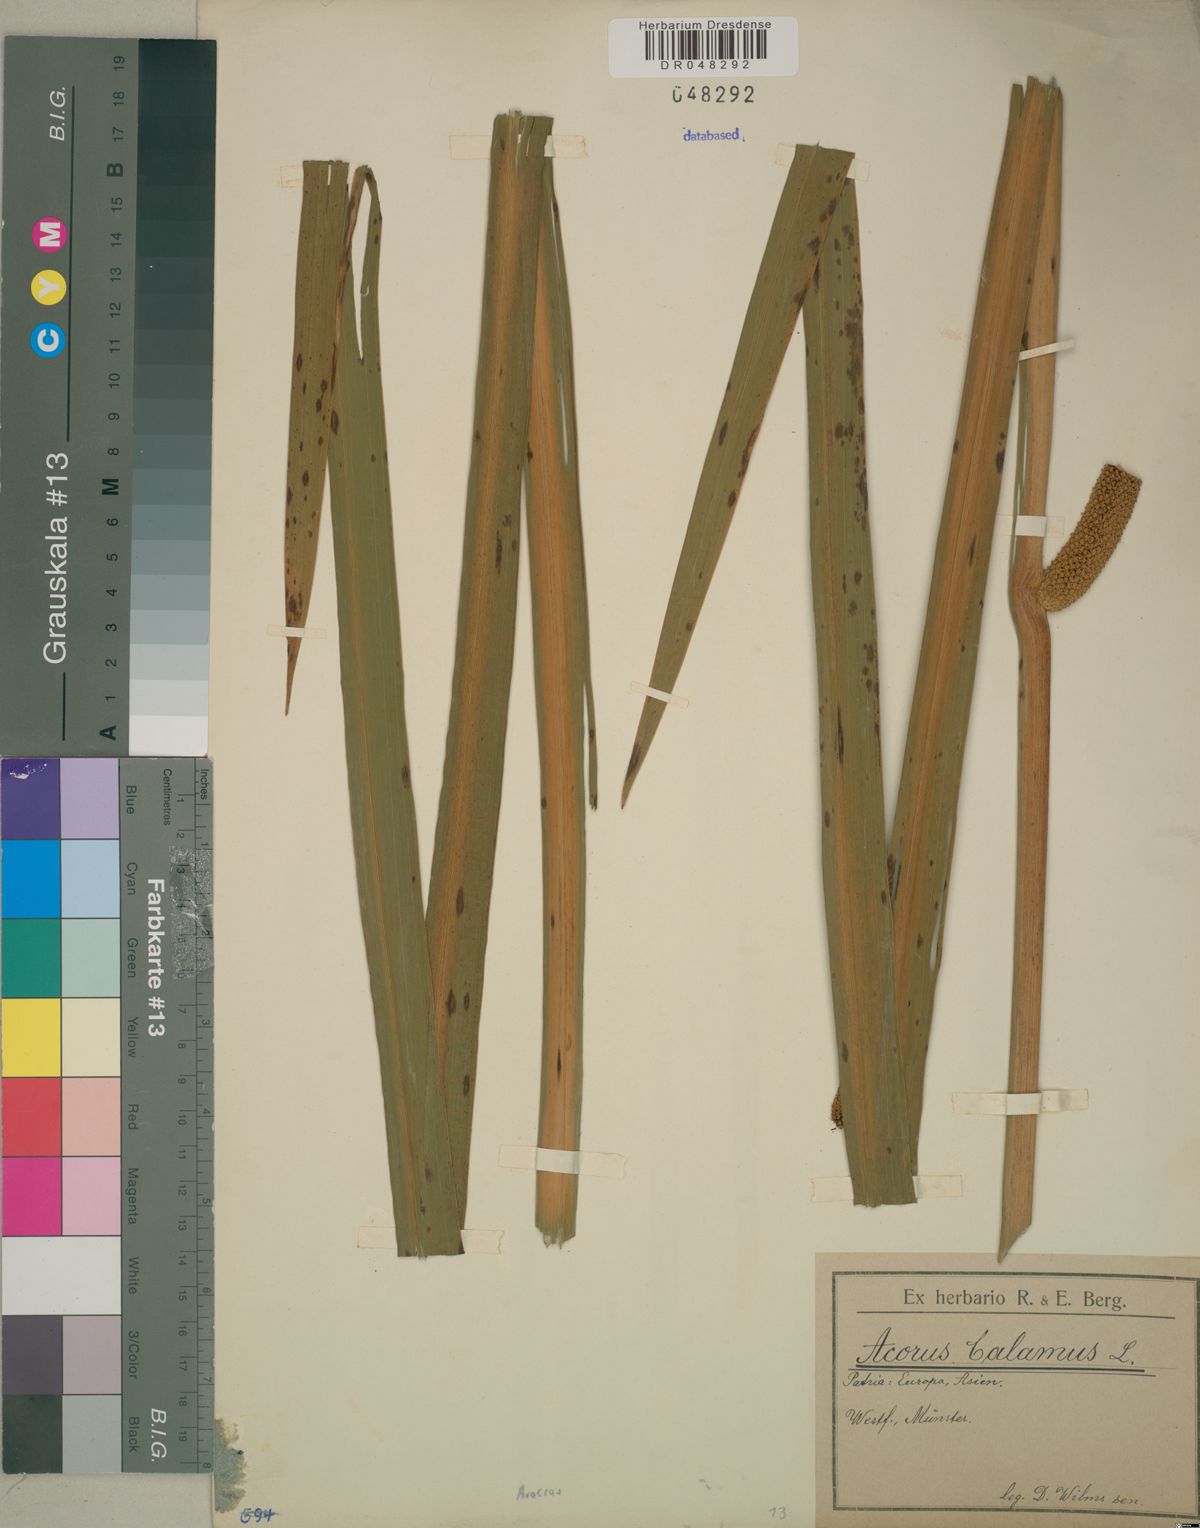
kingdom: Plantae
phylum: Tracheophyta
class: Liliopsida
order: Acorales
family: Acoraceae
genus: Acorus
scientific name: Acorus calamus
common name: Sweet-flag
